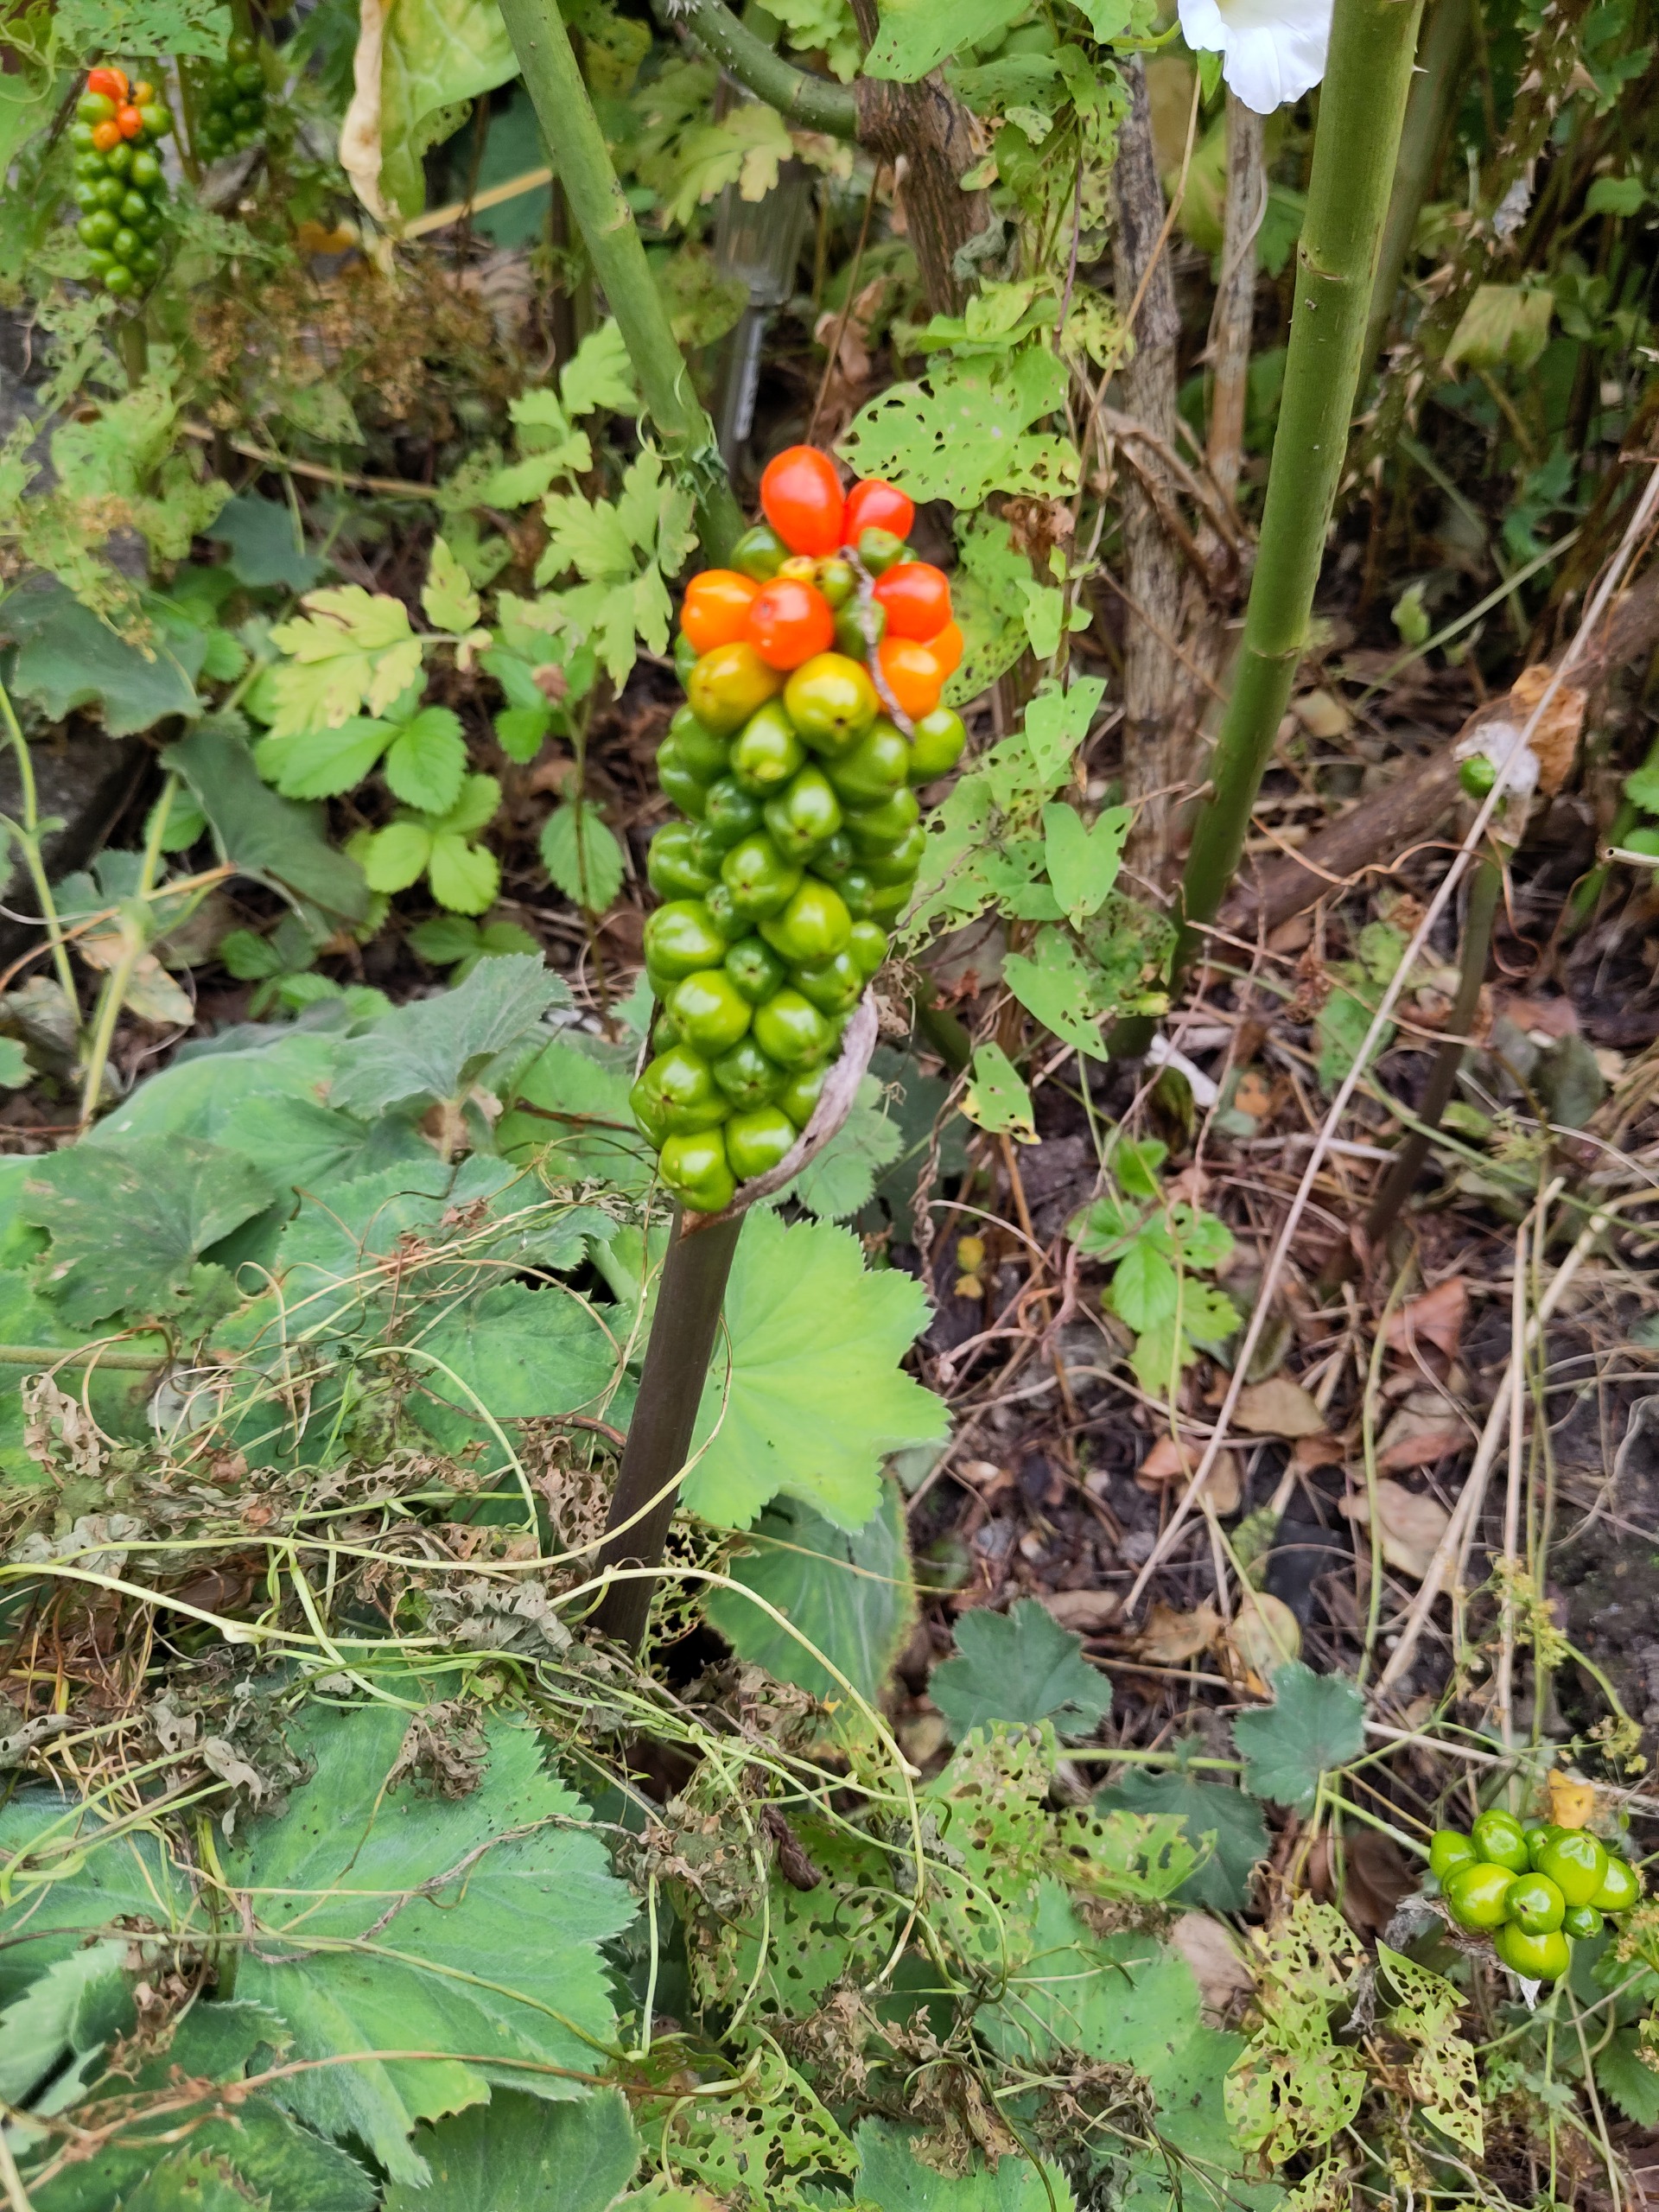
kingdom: Plantae
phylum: Tracheophyta
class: Liliopsida
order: Alismatales
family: Araceae
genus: Arum
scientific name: Arum
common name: Arumslægten
